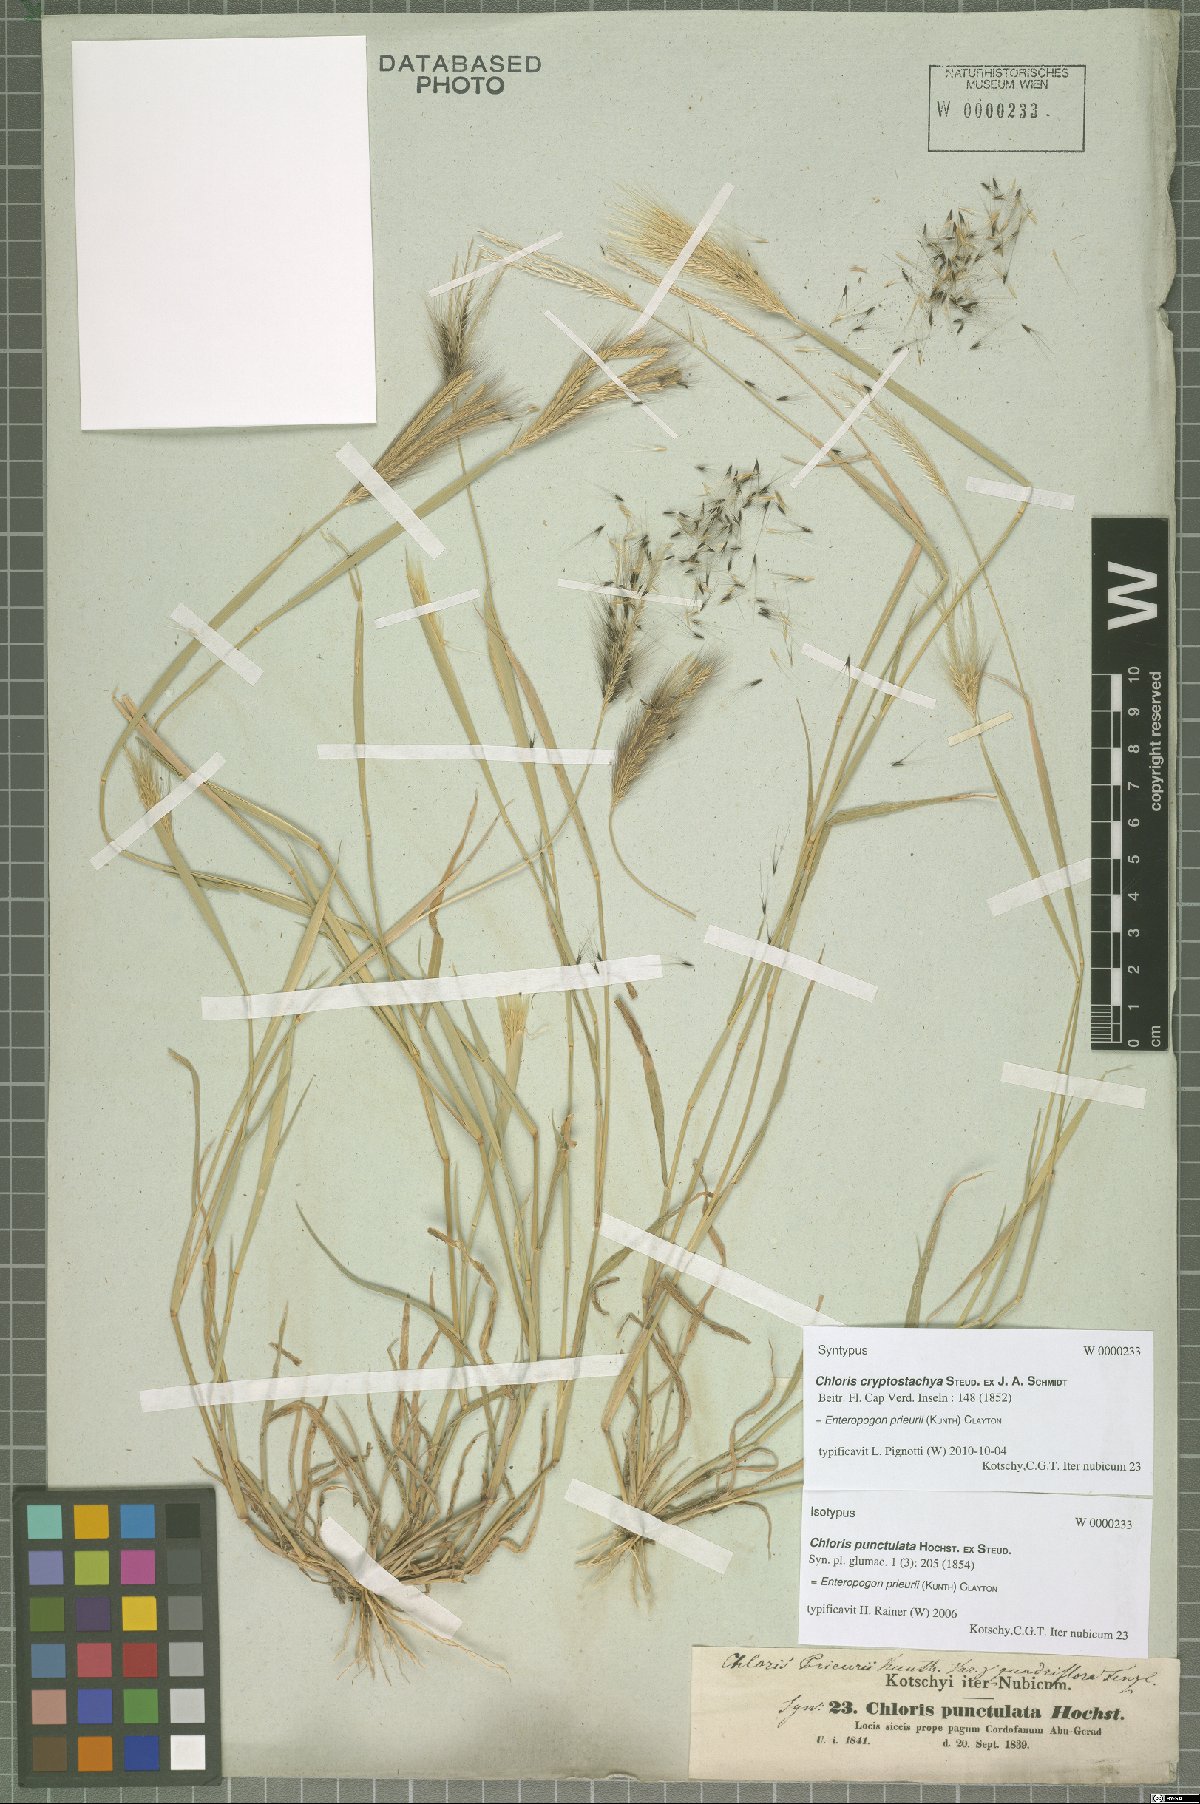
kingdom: Plantae
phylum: Tracheophyta
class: Liliopsida
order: Poales
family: Poaceae
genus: Enteropogon
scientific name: Enteropogon prieurii
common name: Prieur's umbrellagrass
